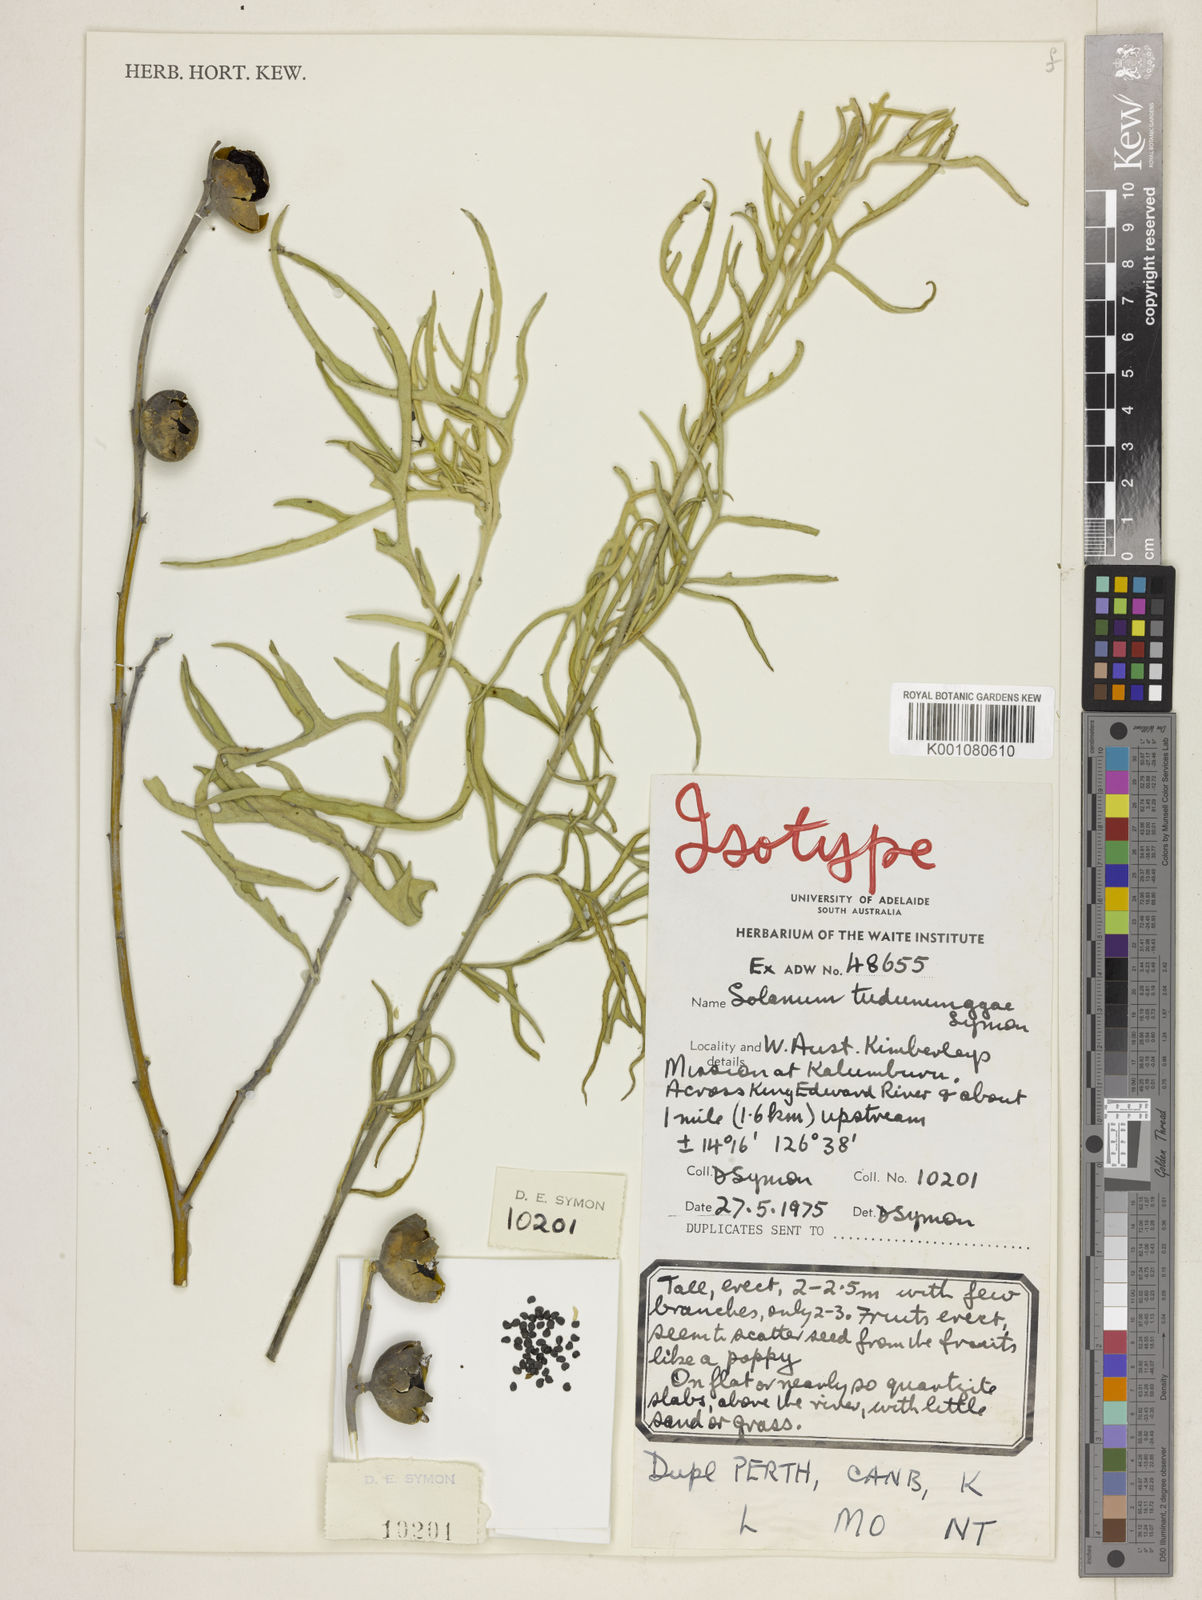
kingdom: Plantae
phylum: Tracheophyta
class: Magnoliopsida
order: Solanales
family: Solanaceae
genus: Solanum
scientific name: Solanum tudununggae
